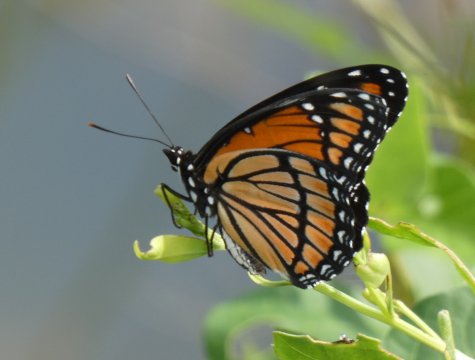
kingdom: Animalia
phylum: Arthropoda
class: Insecta
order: Lepidoptera
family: Nymphalidae
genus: Limenitis
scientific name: Limenitis archippus
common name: Viceroy
